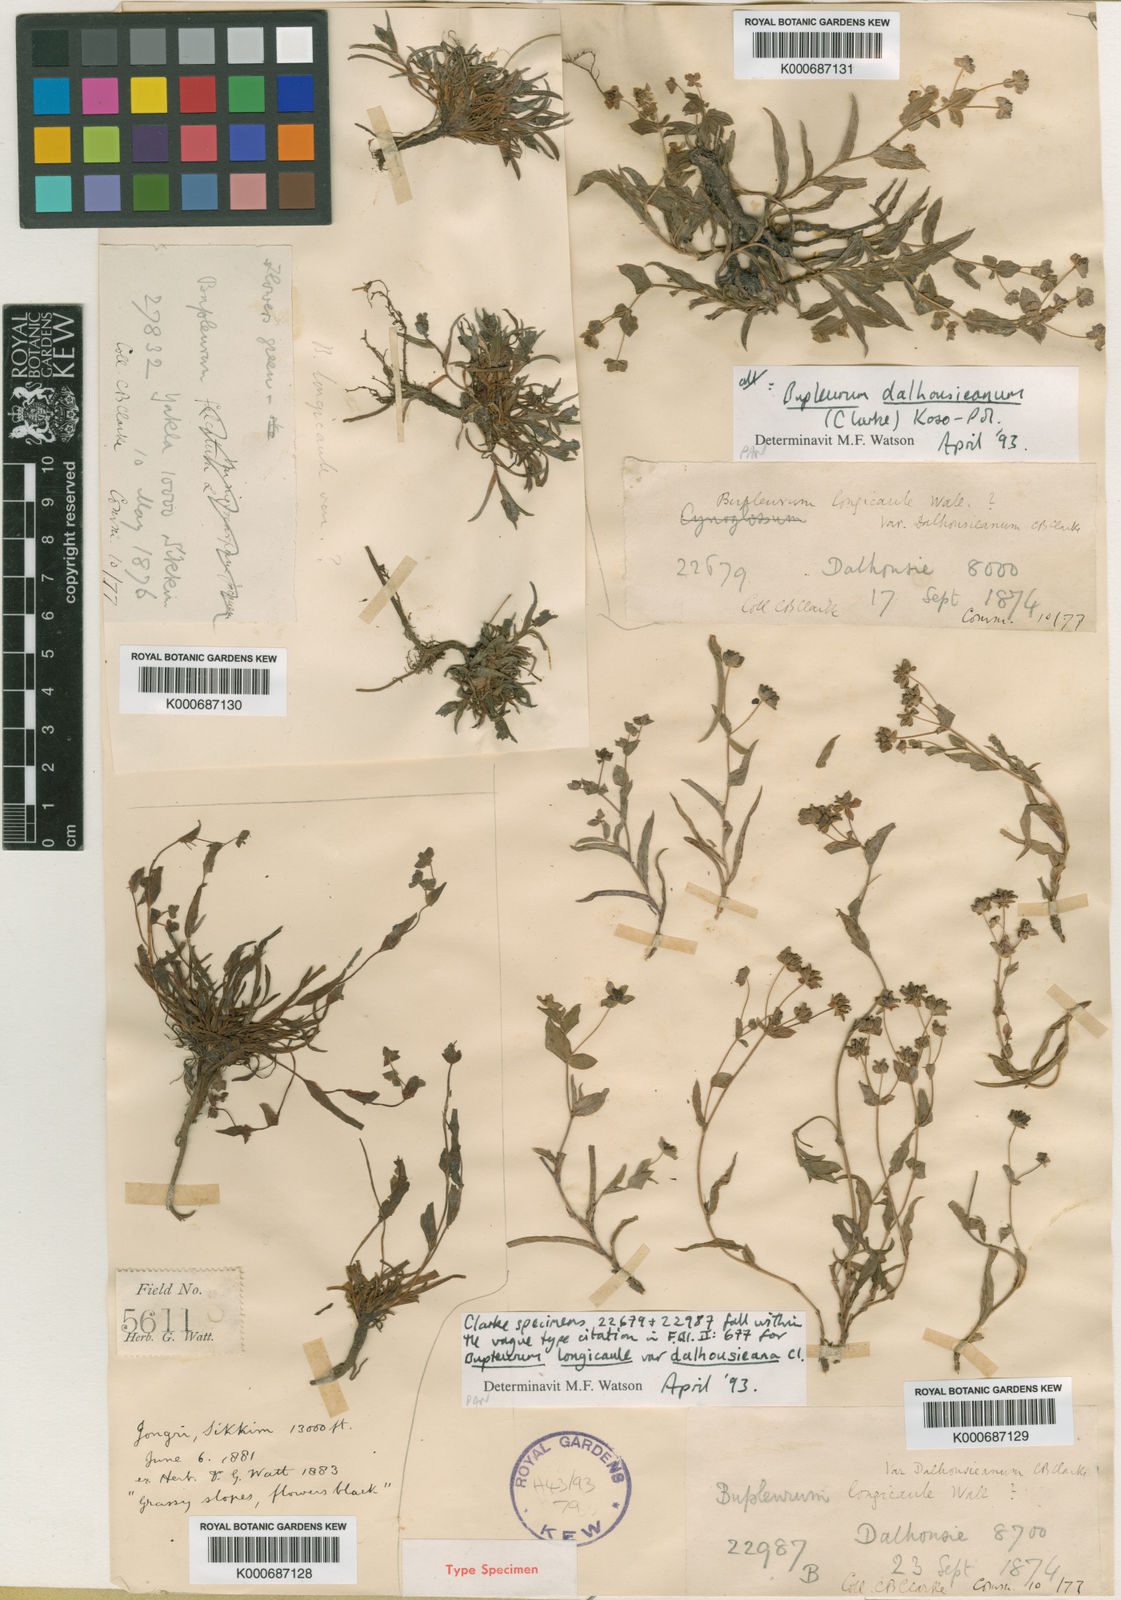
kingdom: Plantae
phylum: Tracheophyta
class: Magnoliopsida
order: Apiales
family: Apiaceae
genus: Bupleurum
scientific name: Bupleurum dalhousieanum
